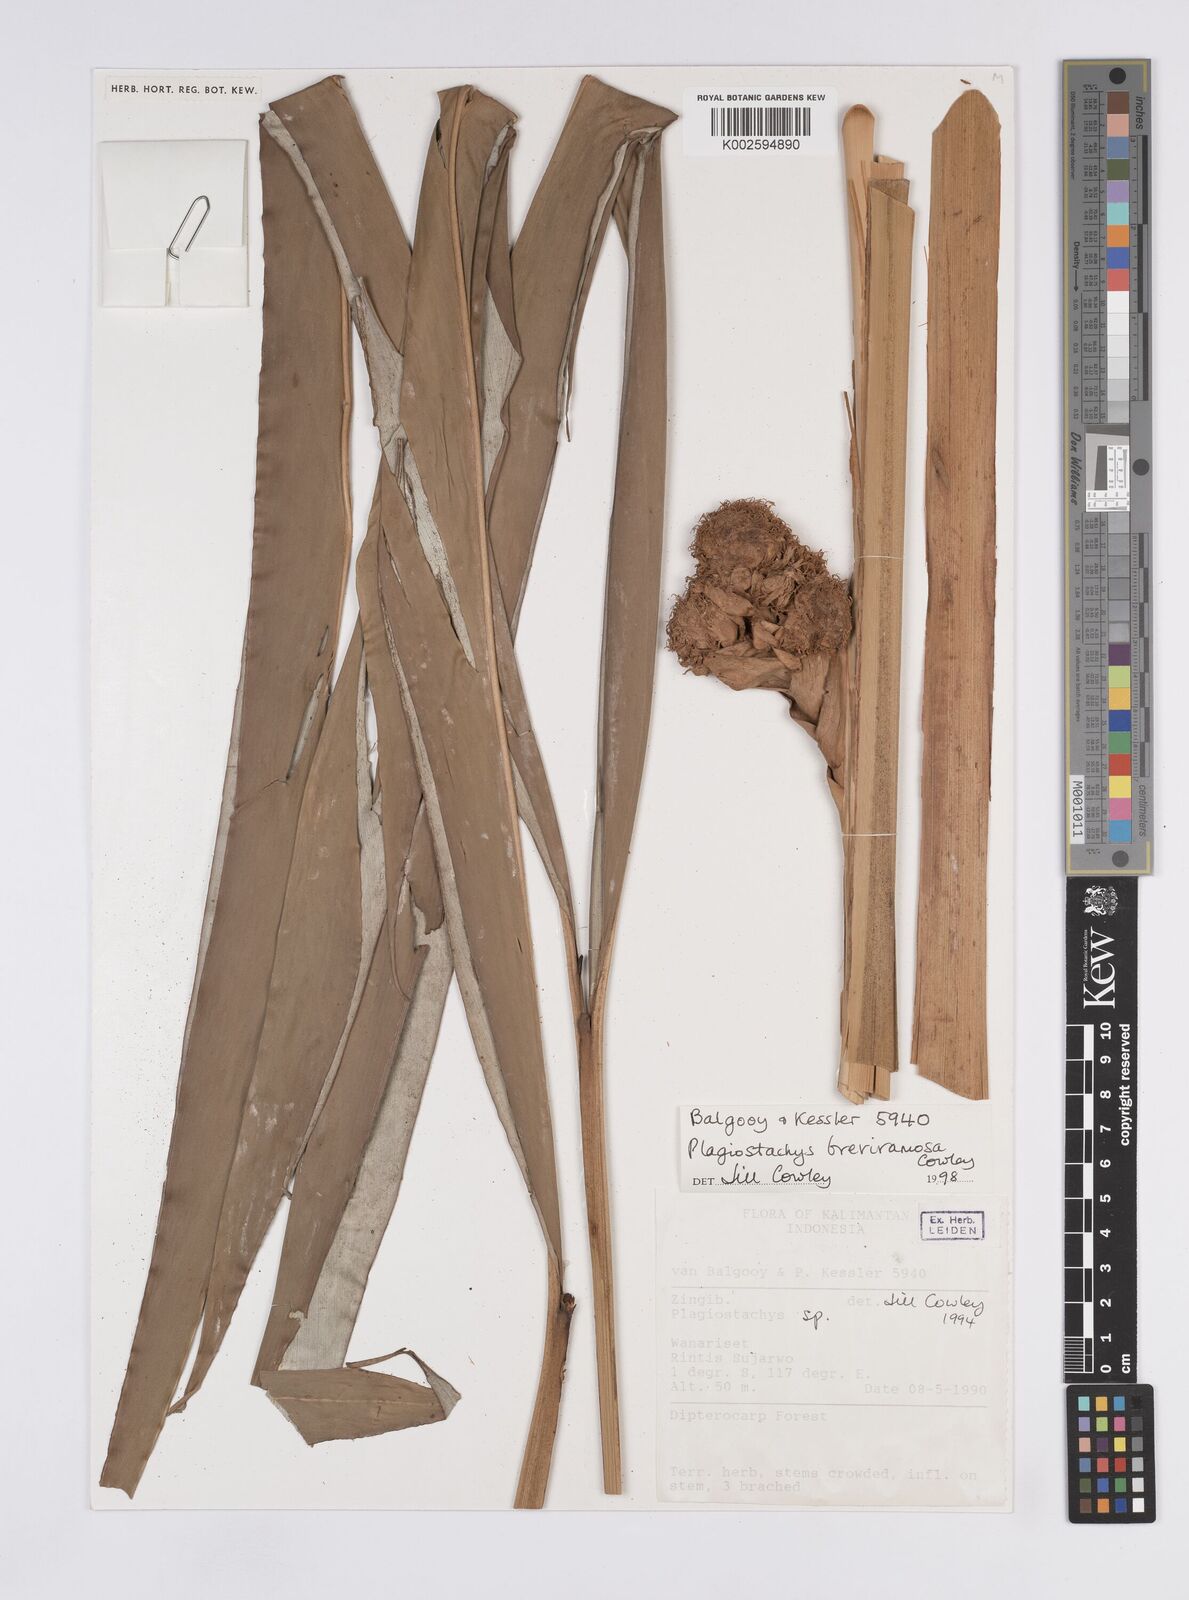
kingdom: Plantae
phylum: Tracheophyta
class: Liliopsida
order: Zingiberales
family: Zingiberaceae
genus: Plagiostachys
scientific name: Plagiostachys breviramosa
